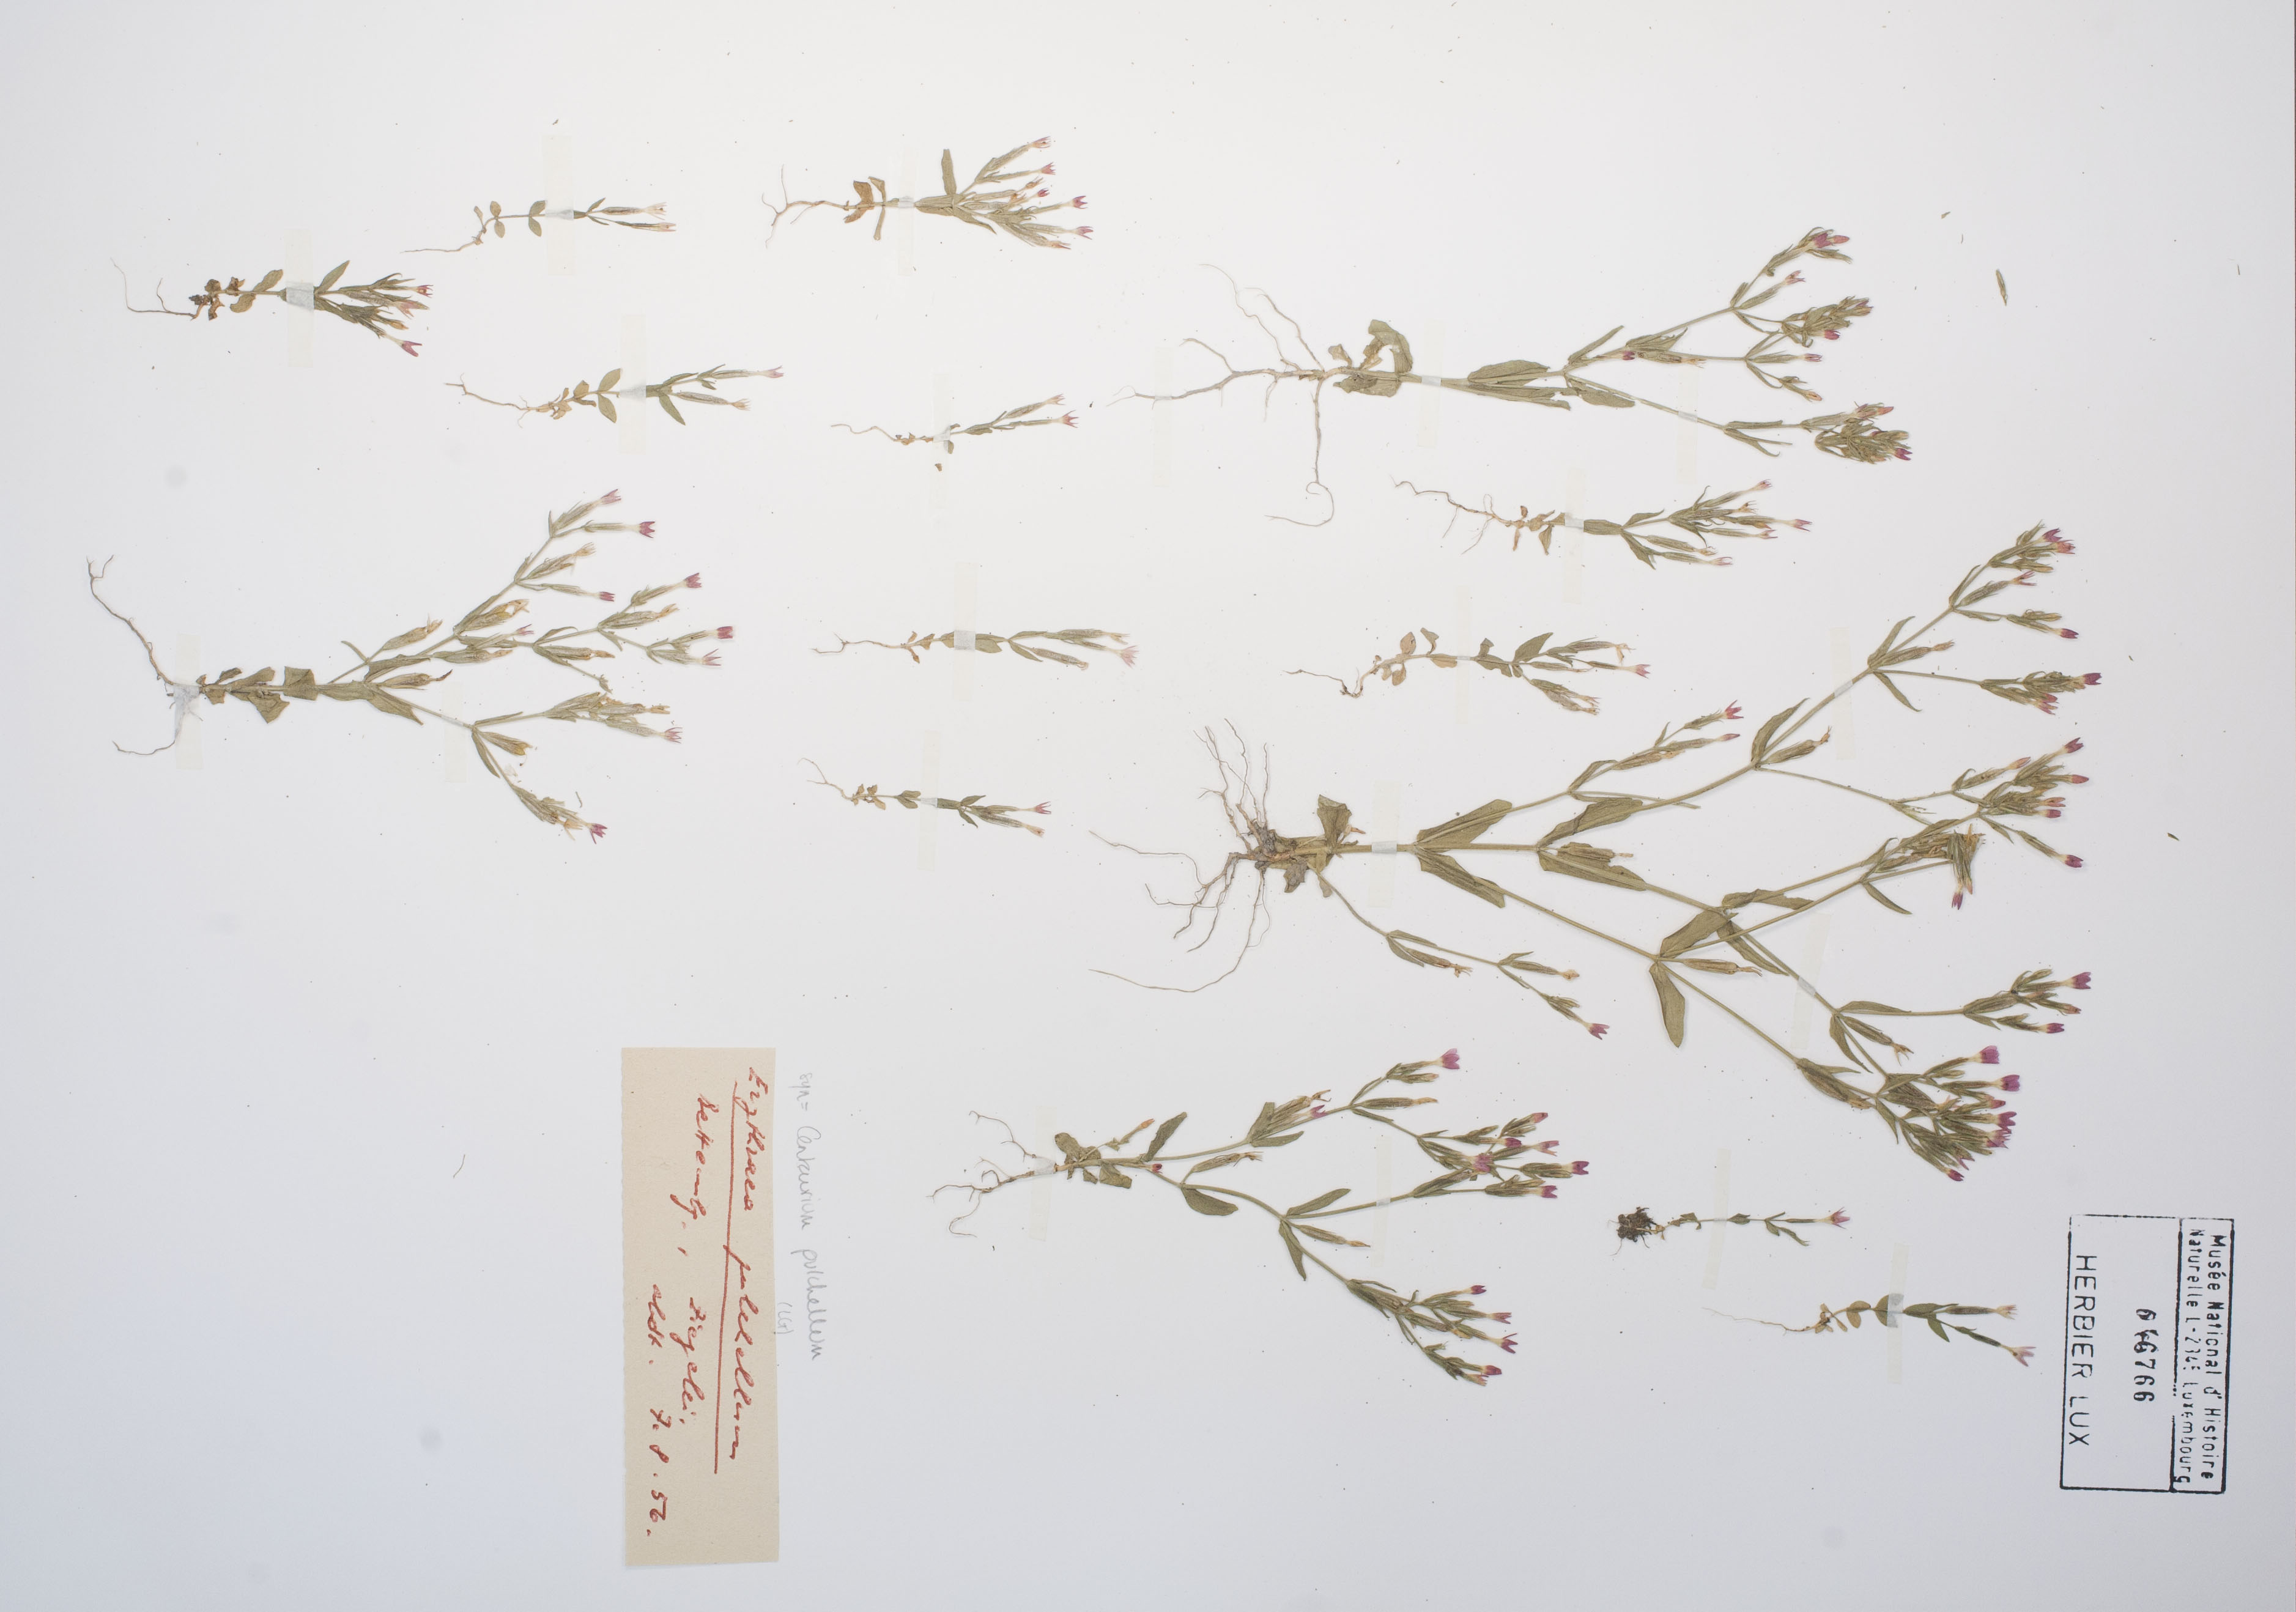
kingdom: Plantae
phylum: Tracheophyta
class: Magnoliopsida
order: Gentianales
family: Gentianaceae
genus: Centaurium
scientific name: Centaurium pulchellum
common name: Lesser centaury
